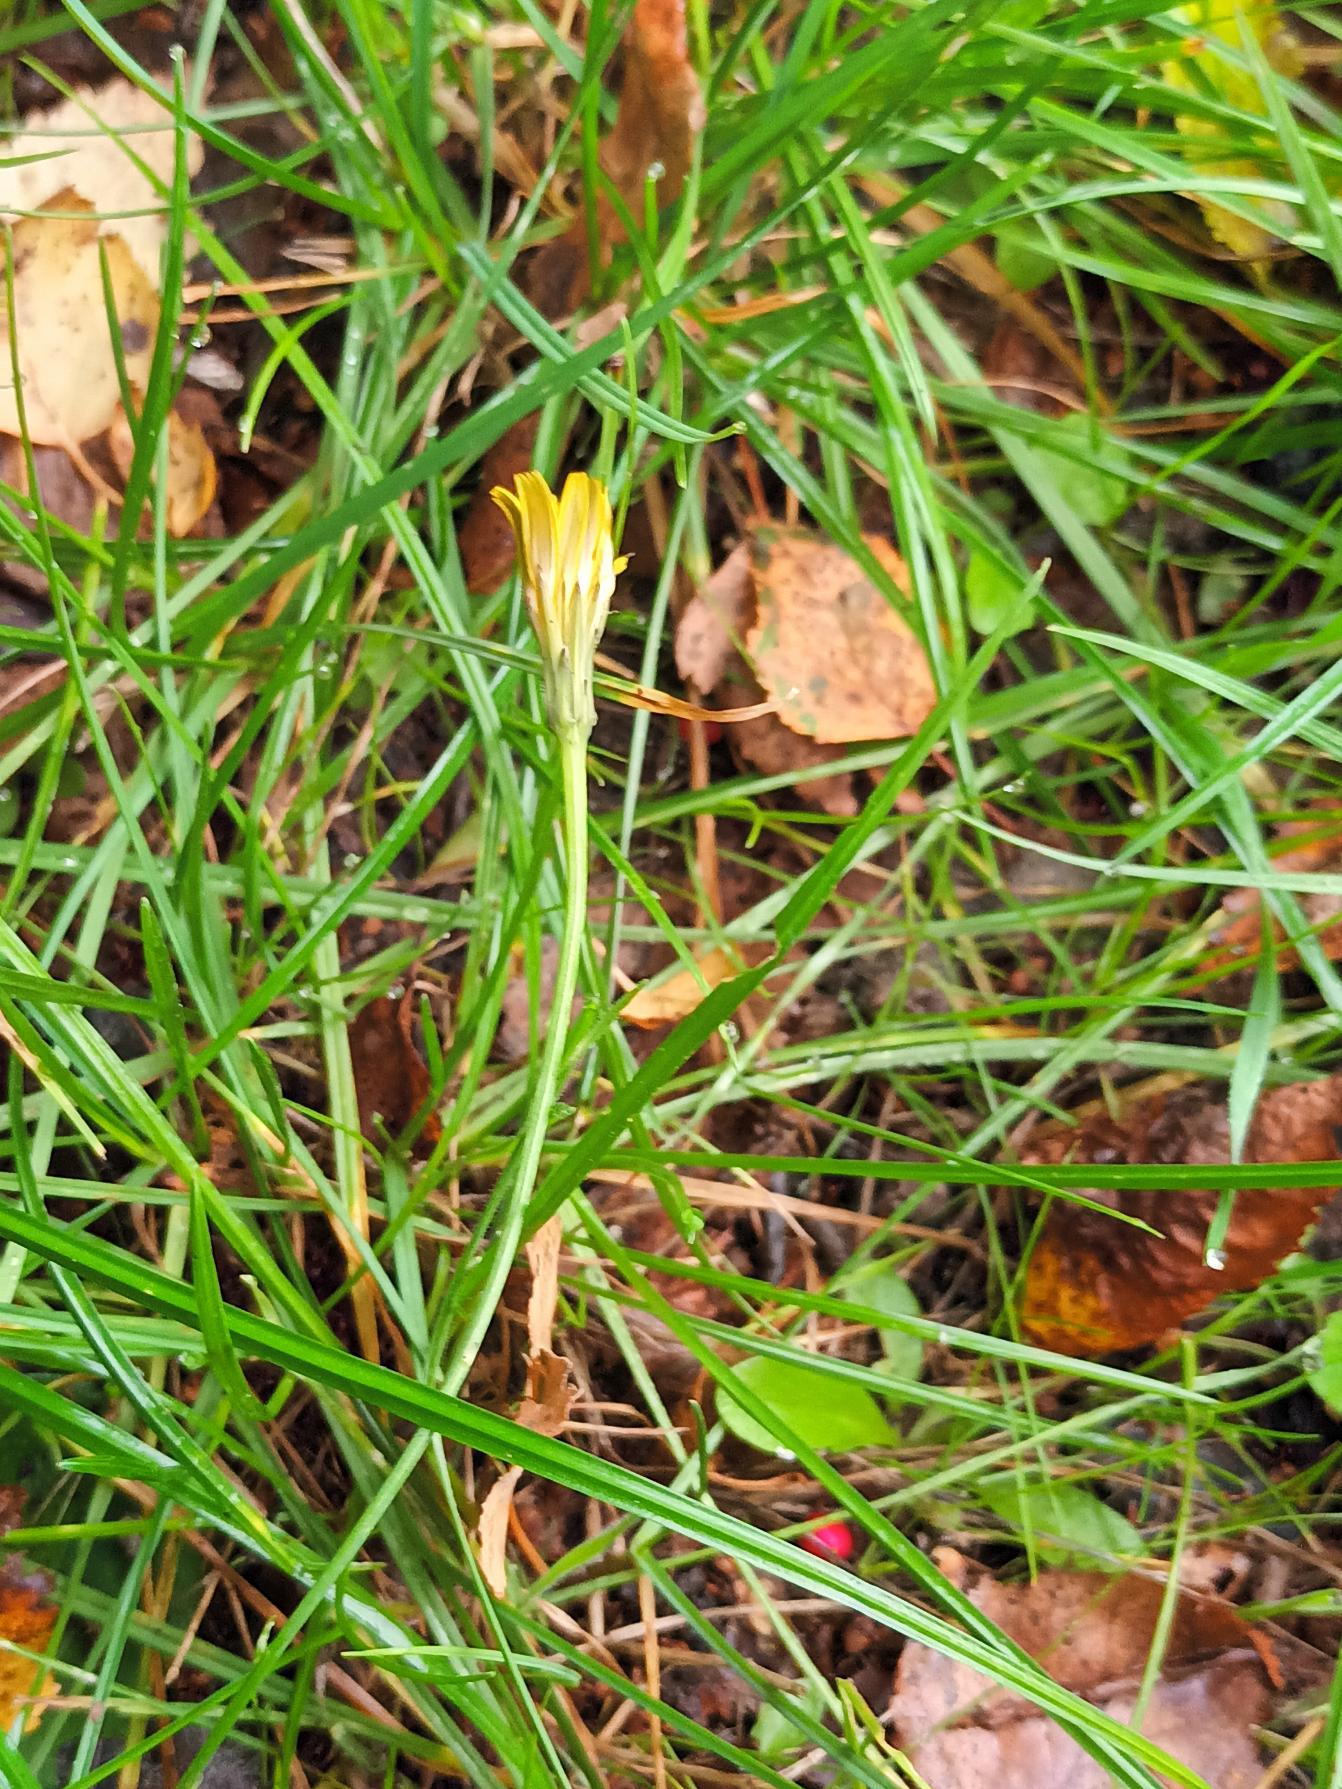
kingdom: Plantae
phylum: Tracheophyta
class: Magnoliopsida
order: Asterales
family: Asteraceae
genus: Hypochaeris
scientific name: Hypochaeris radicata
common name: Almindelig kongepen
